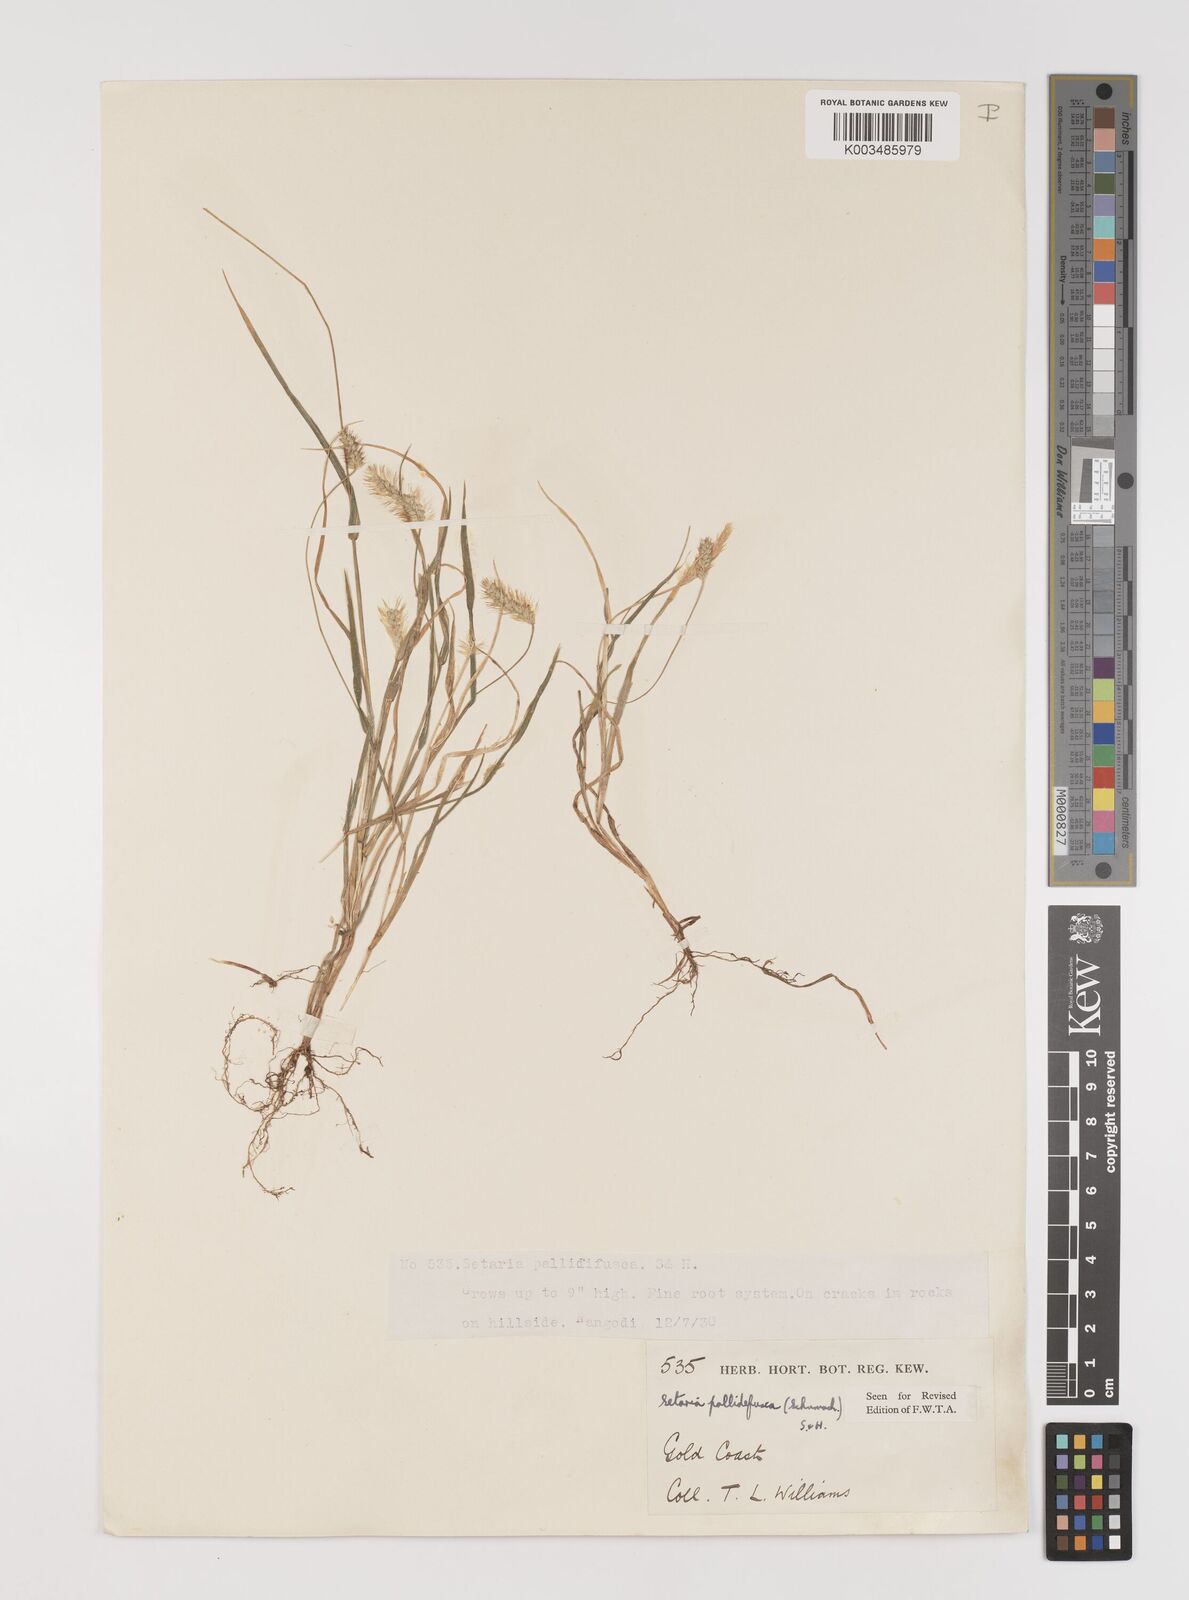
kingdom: Plantae
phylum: Tracheophyta
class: Liliopsida
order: Poales
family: Poaceae
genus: Setaria
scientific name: Setaria pumila
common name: Yellow bristle-grass
